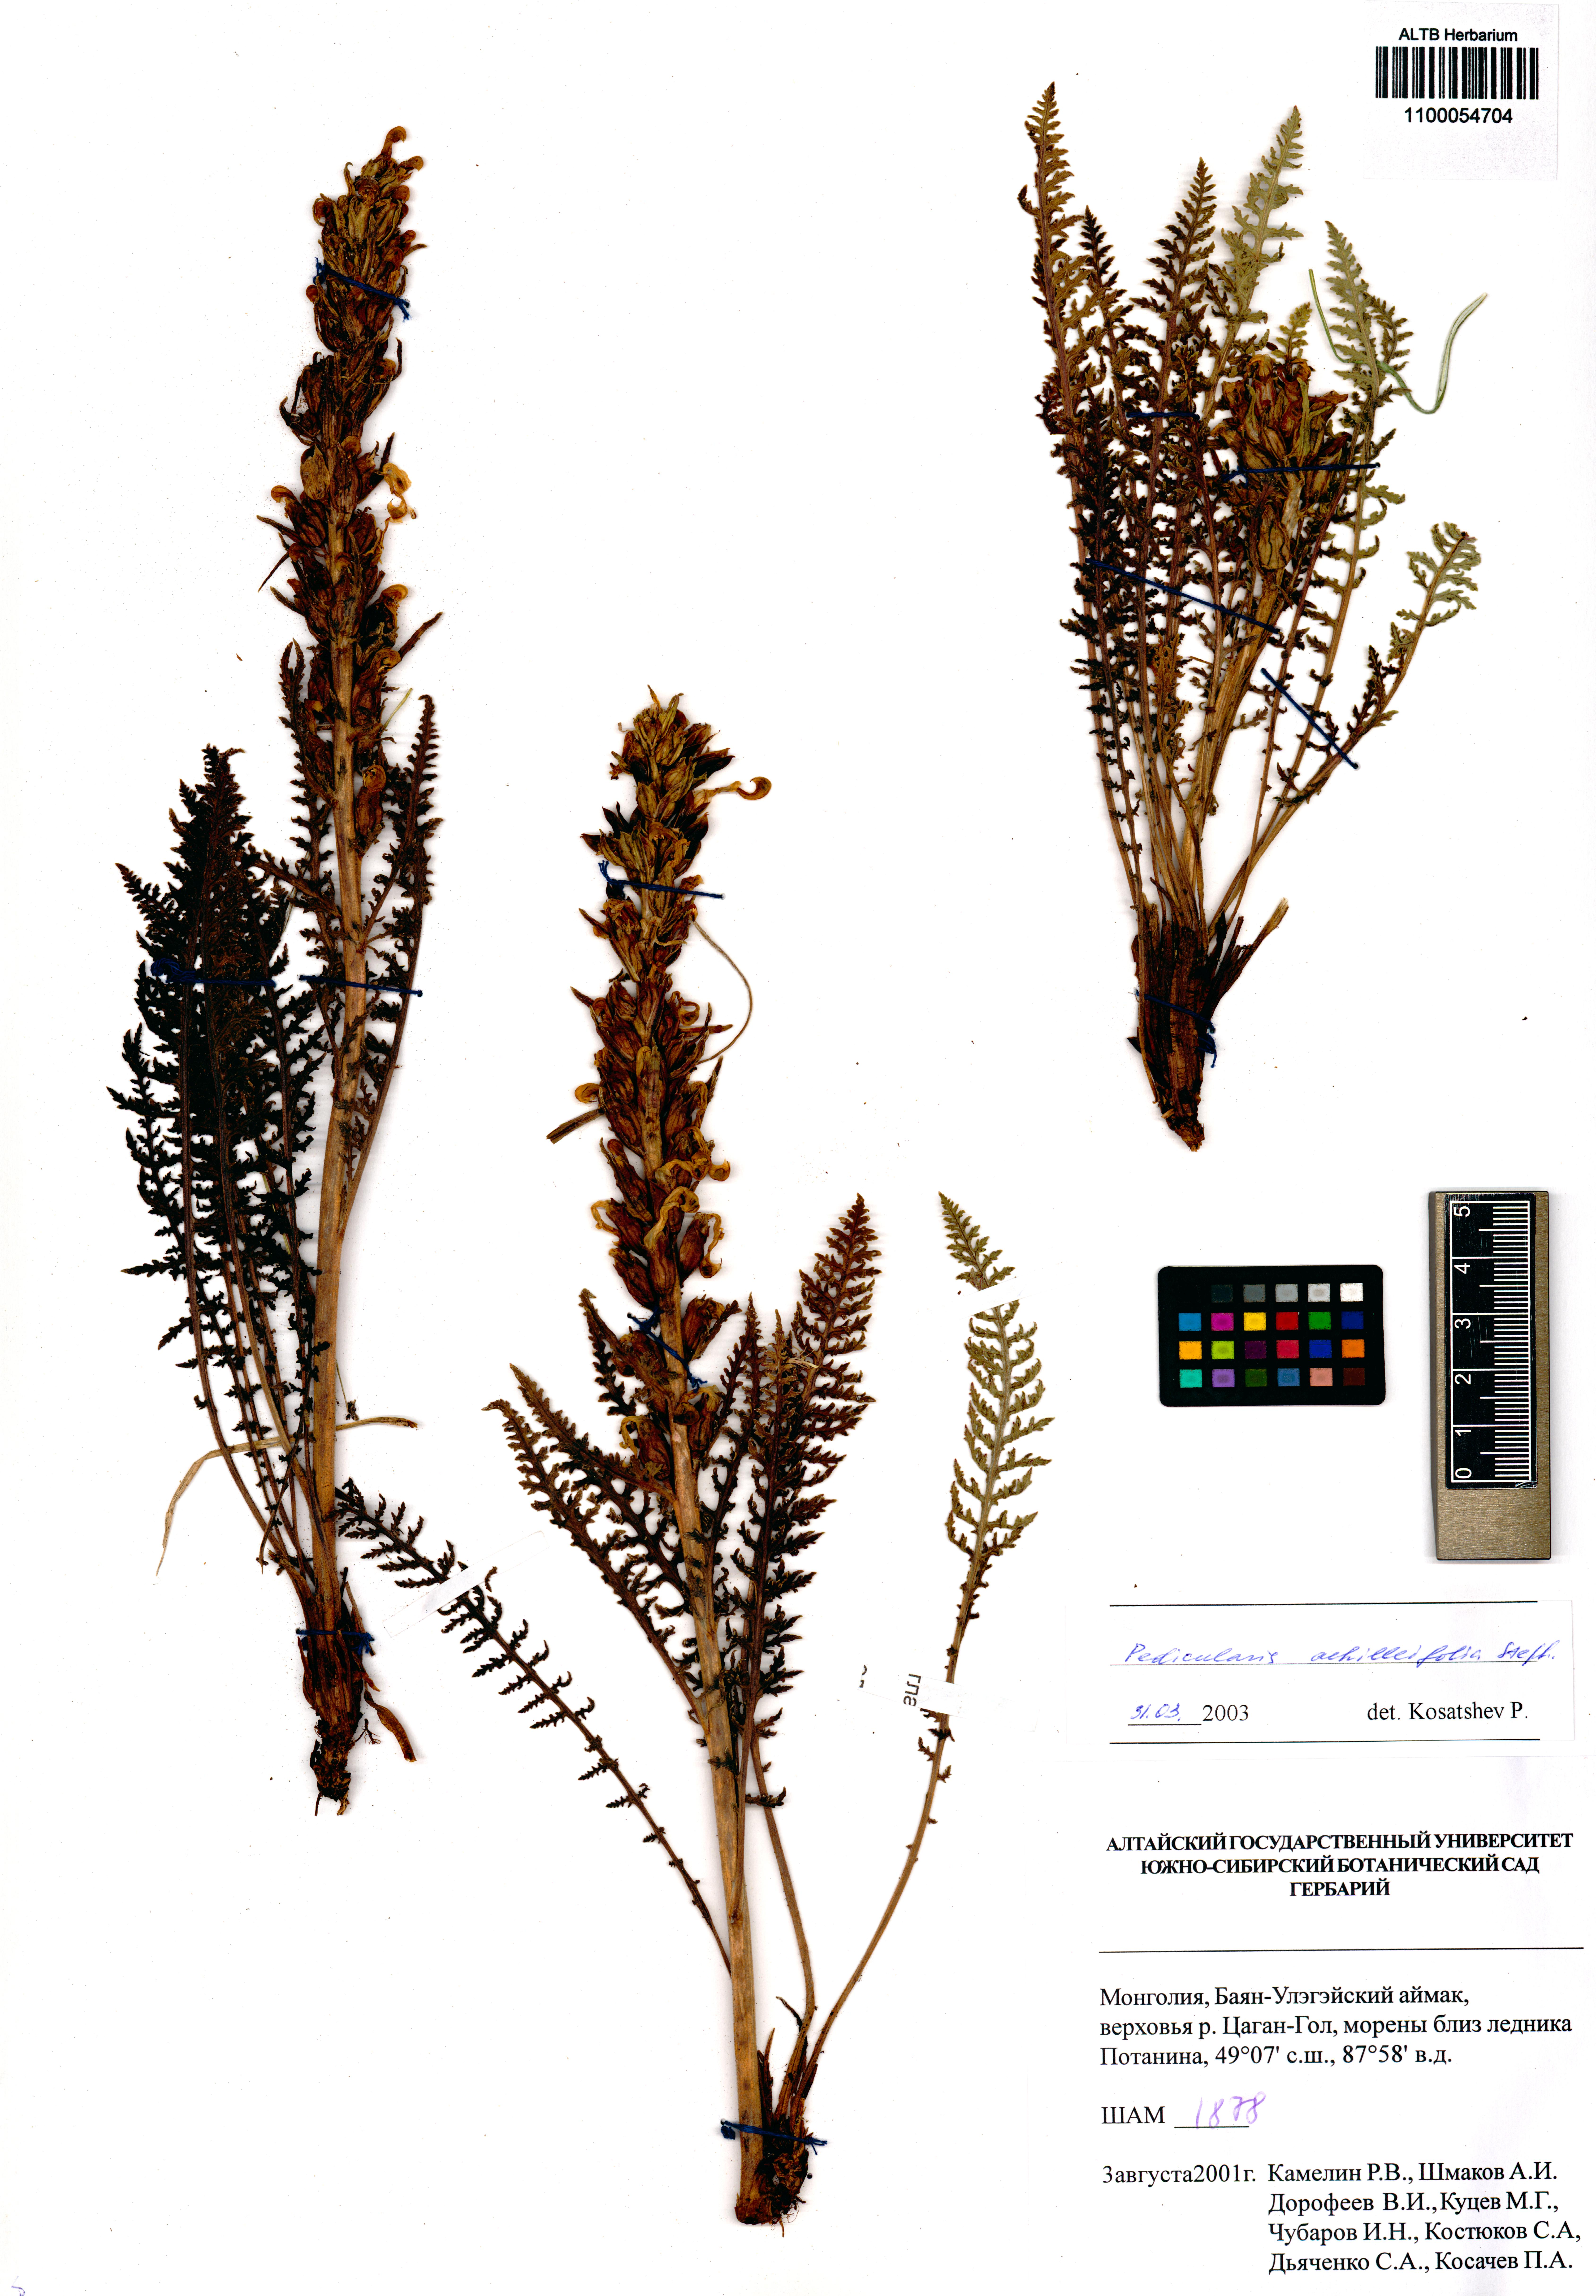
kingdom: Plantae
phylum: Tracheophyta
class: Magnoliopsida
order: Lamiales
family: Orobanchaceae
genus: Pedicularis
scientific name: Pedicularis achilleifolia
